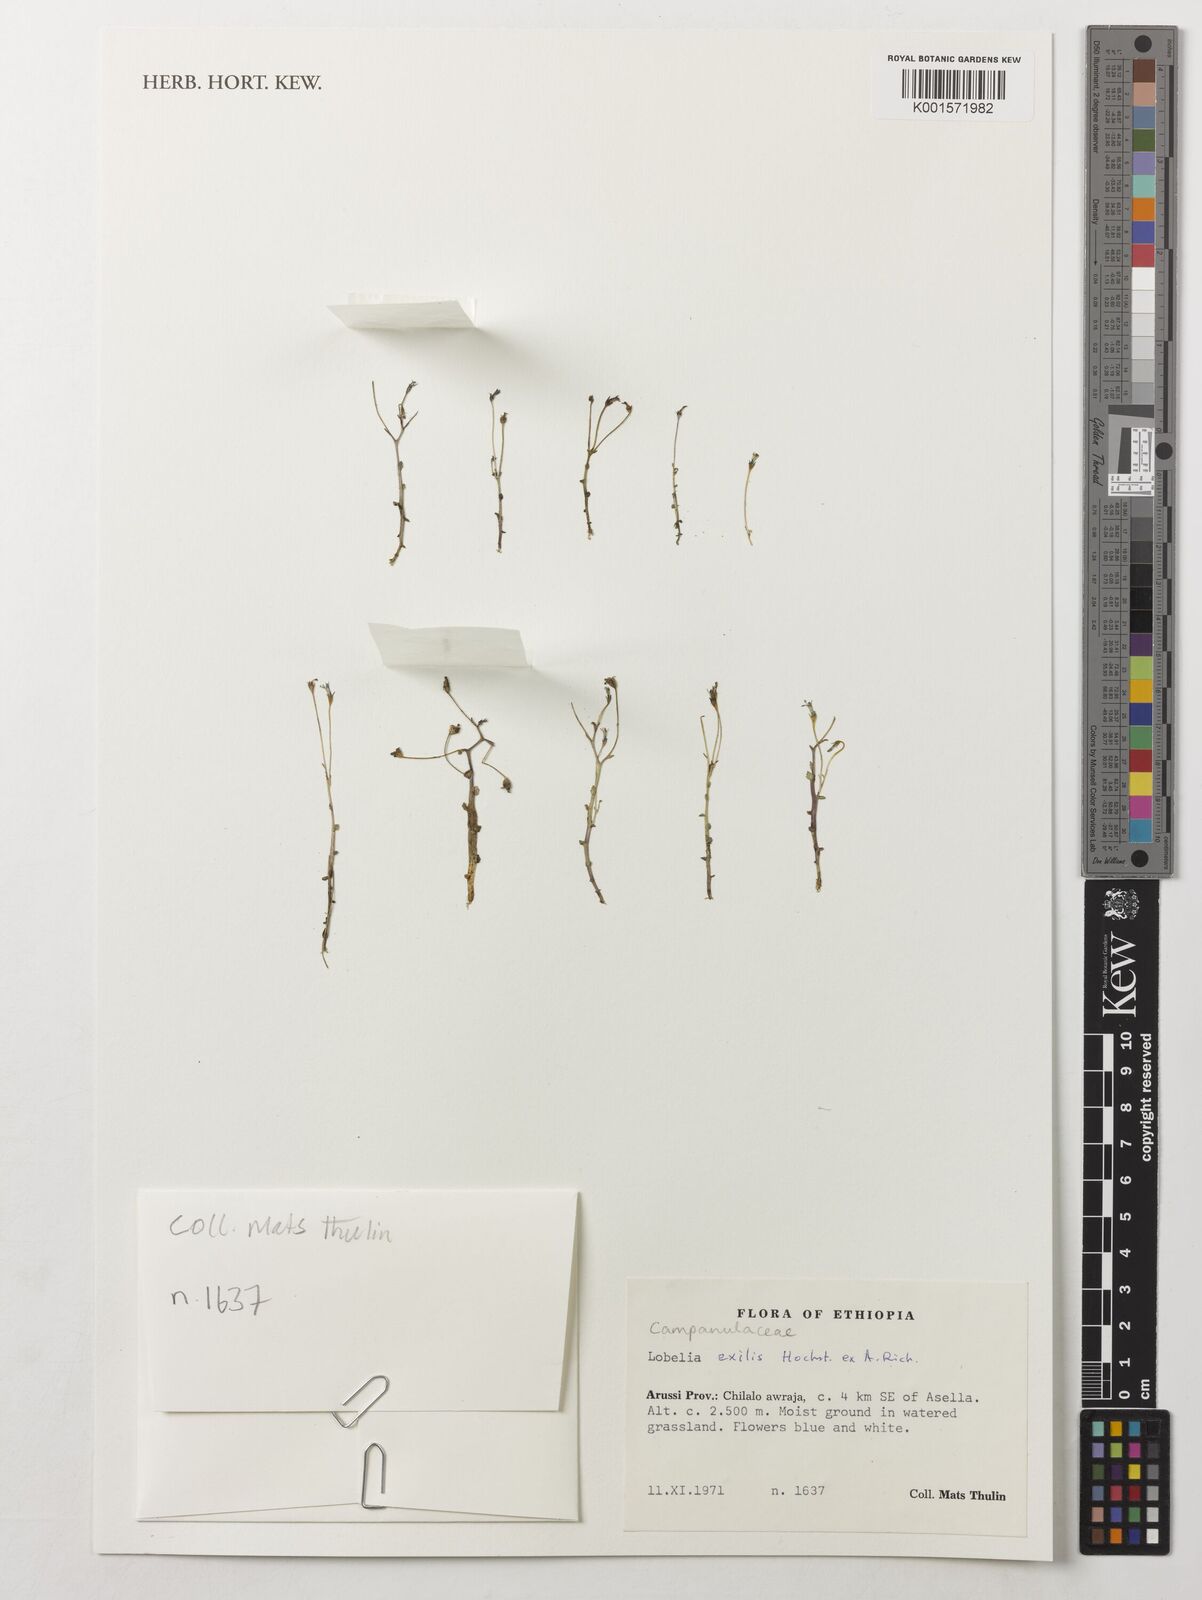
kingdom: Plantae
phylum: Tracheophyta
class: Magnoliopsida
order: Asterales
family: Campanulaceae
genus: Lobelia
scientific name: Lobelia exilis
